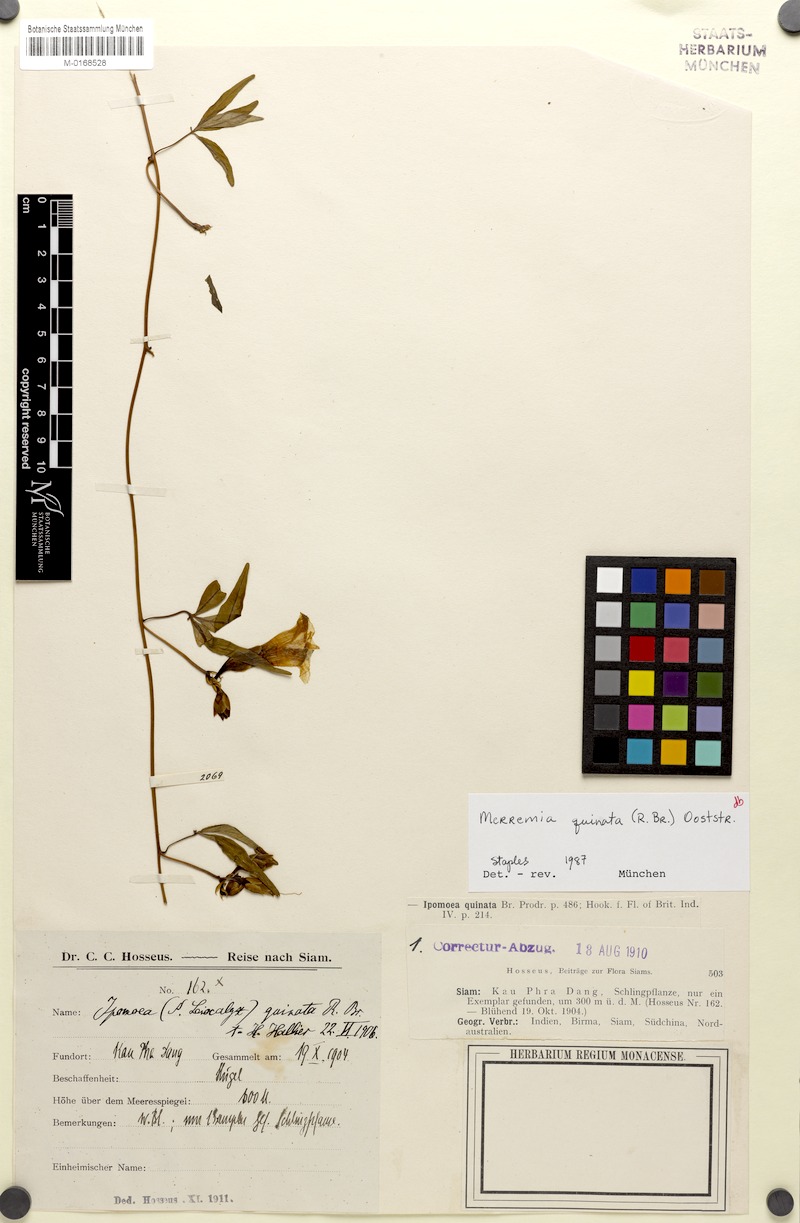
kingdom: Plantae
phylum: Tracheophyta
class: Magnoliopsida
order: Solanales
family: Convolvulaceae
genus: Distimake
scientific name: Distimake quinatus
